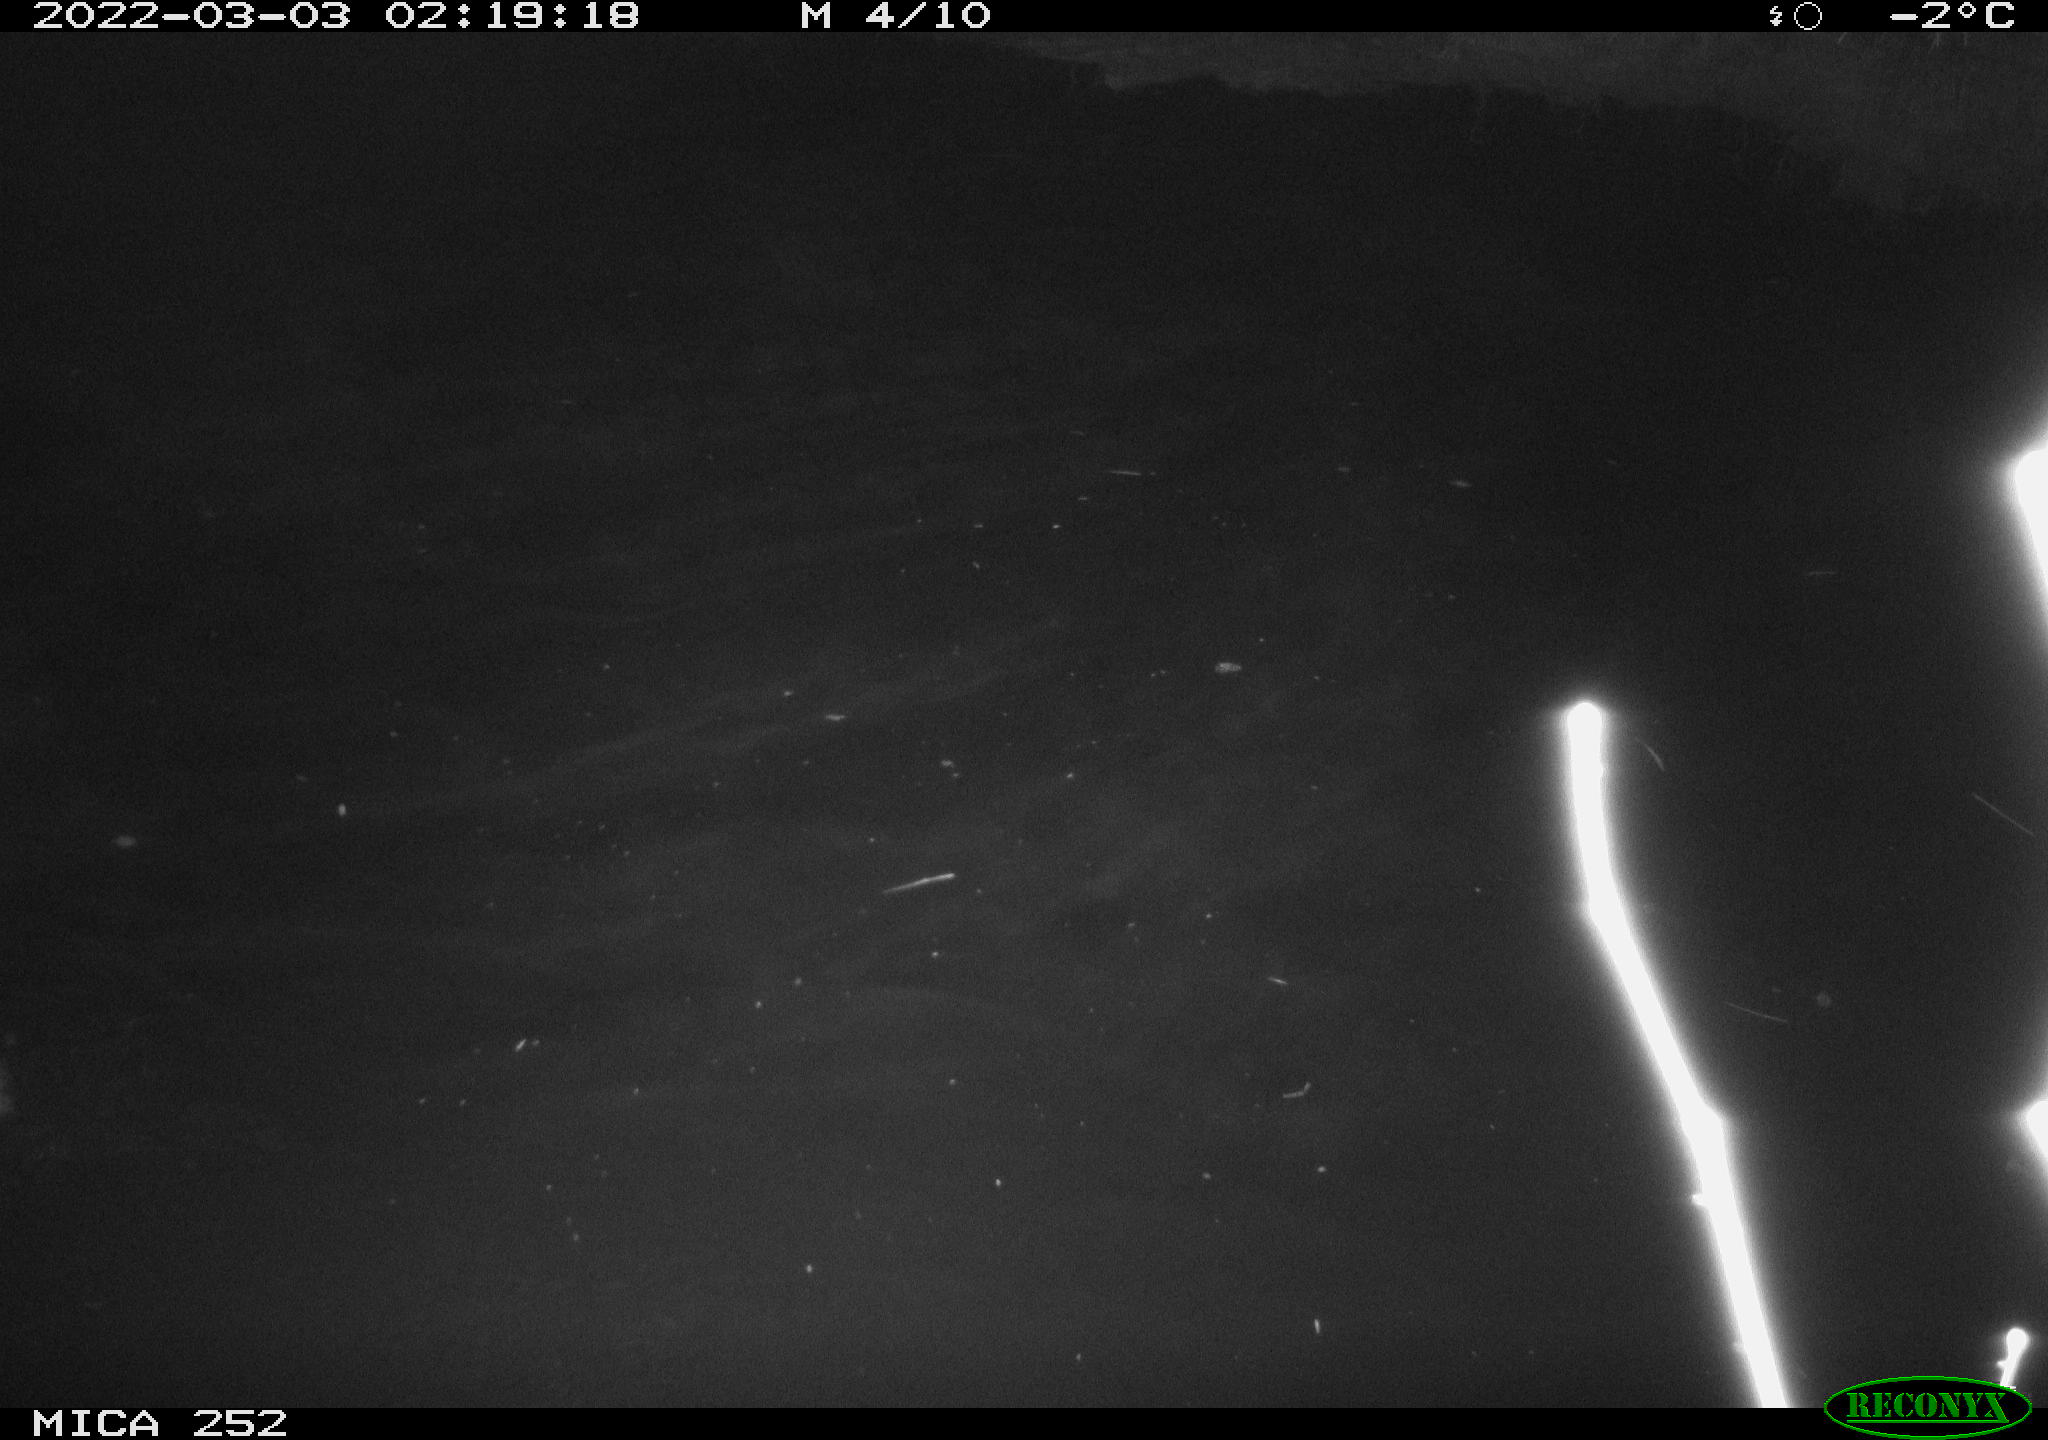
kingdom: Animalia
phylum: Chordata
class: Mammalia
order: Rodentia
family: Castoridae
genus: Castor
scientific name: Castor fiber
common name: Eurasian beaver
